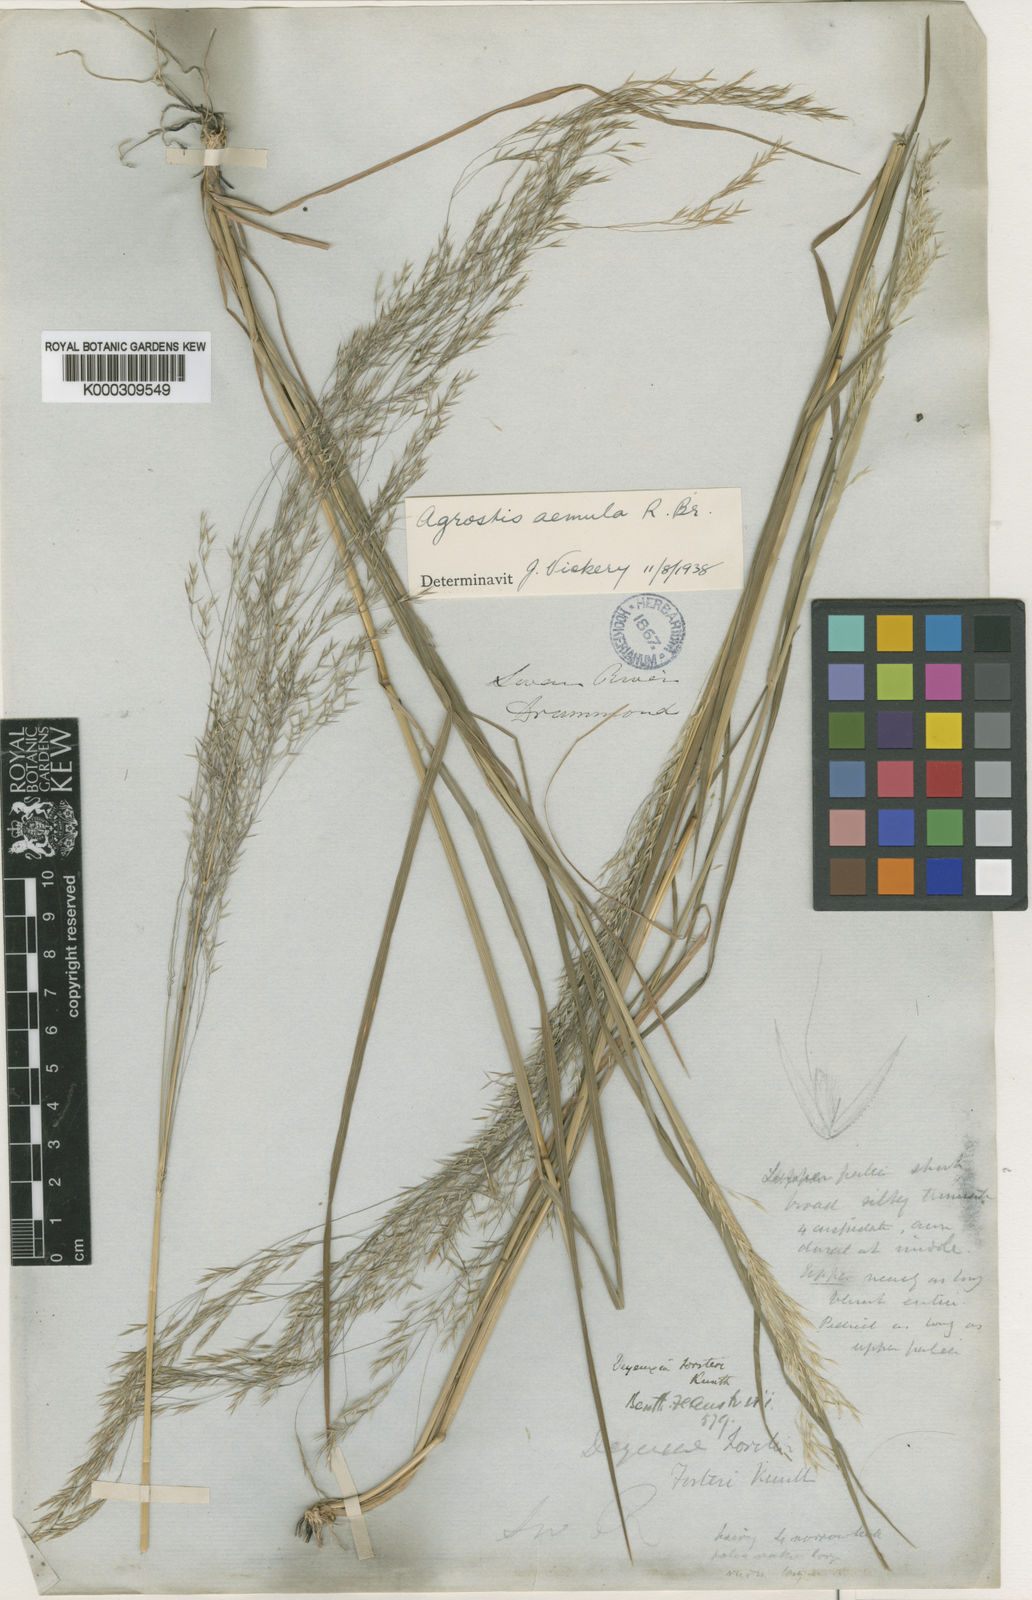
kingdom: Plantae
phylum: Tracheophyta
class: Liliopsida
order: Poales
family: Poaceae
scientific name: Poaceae
